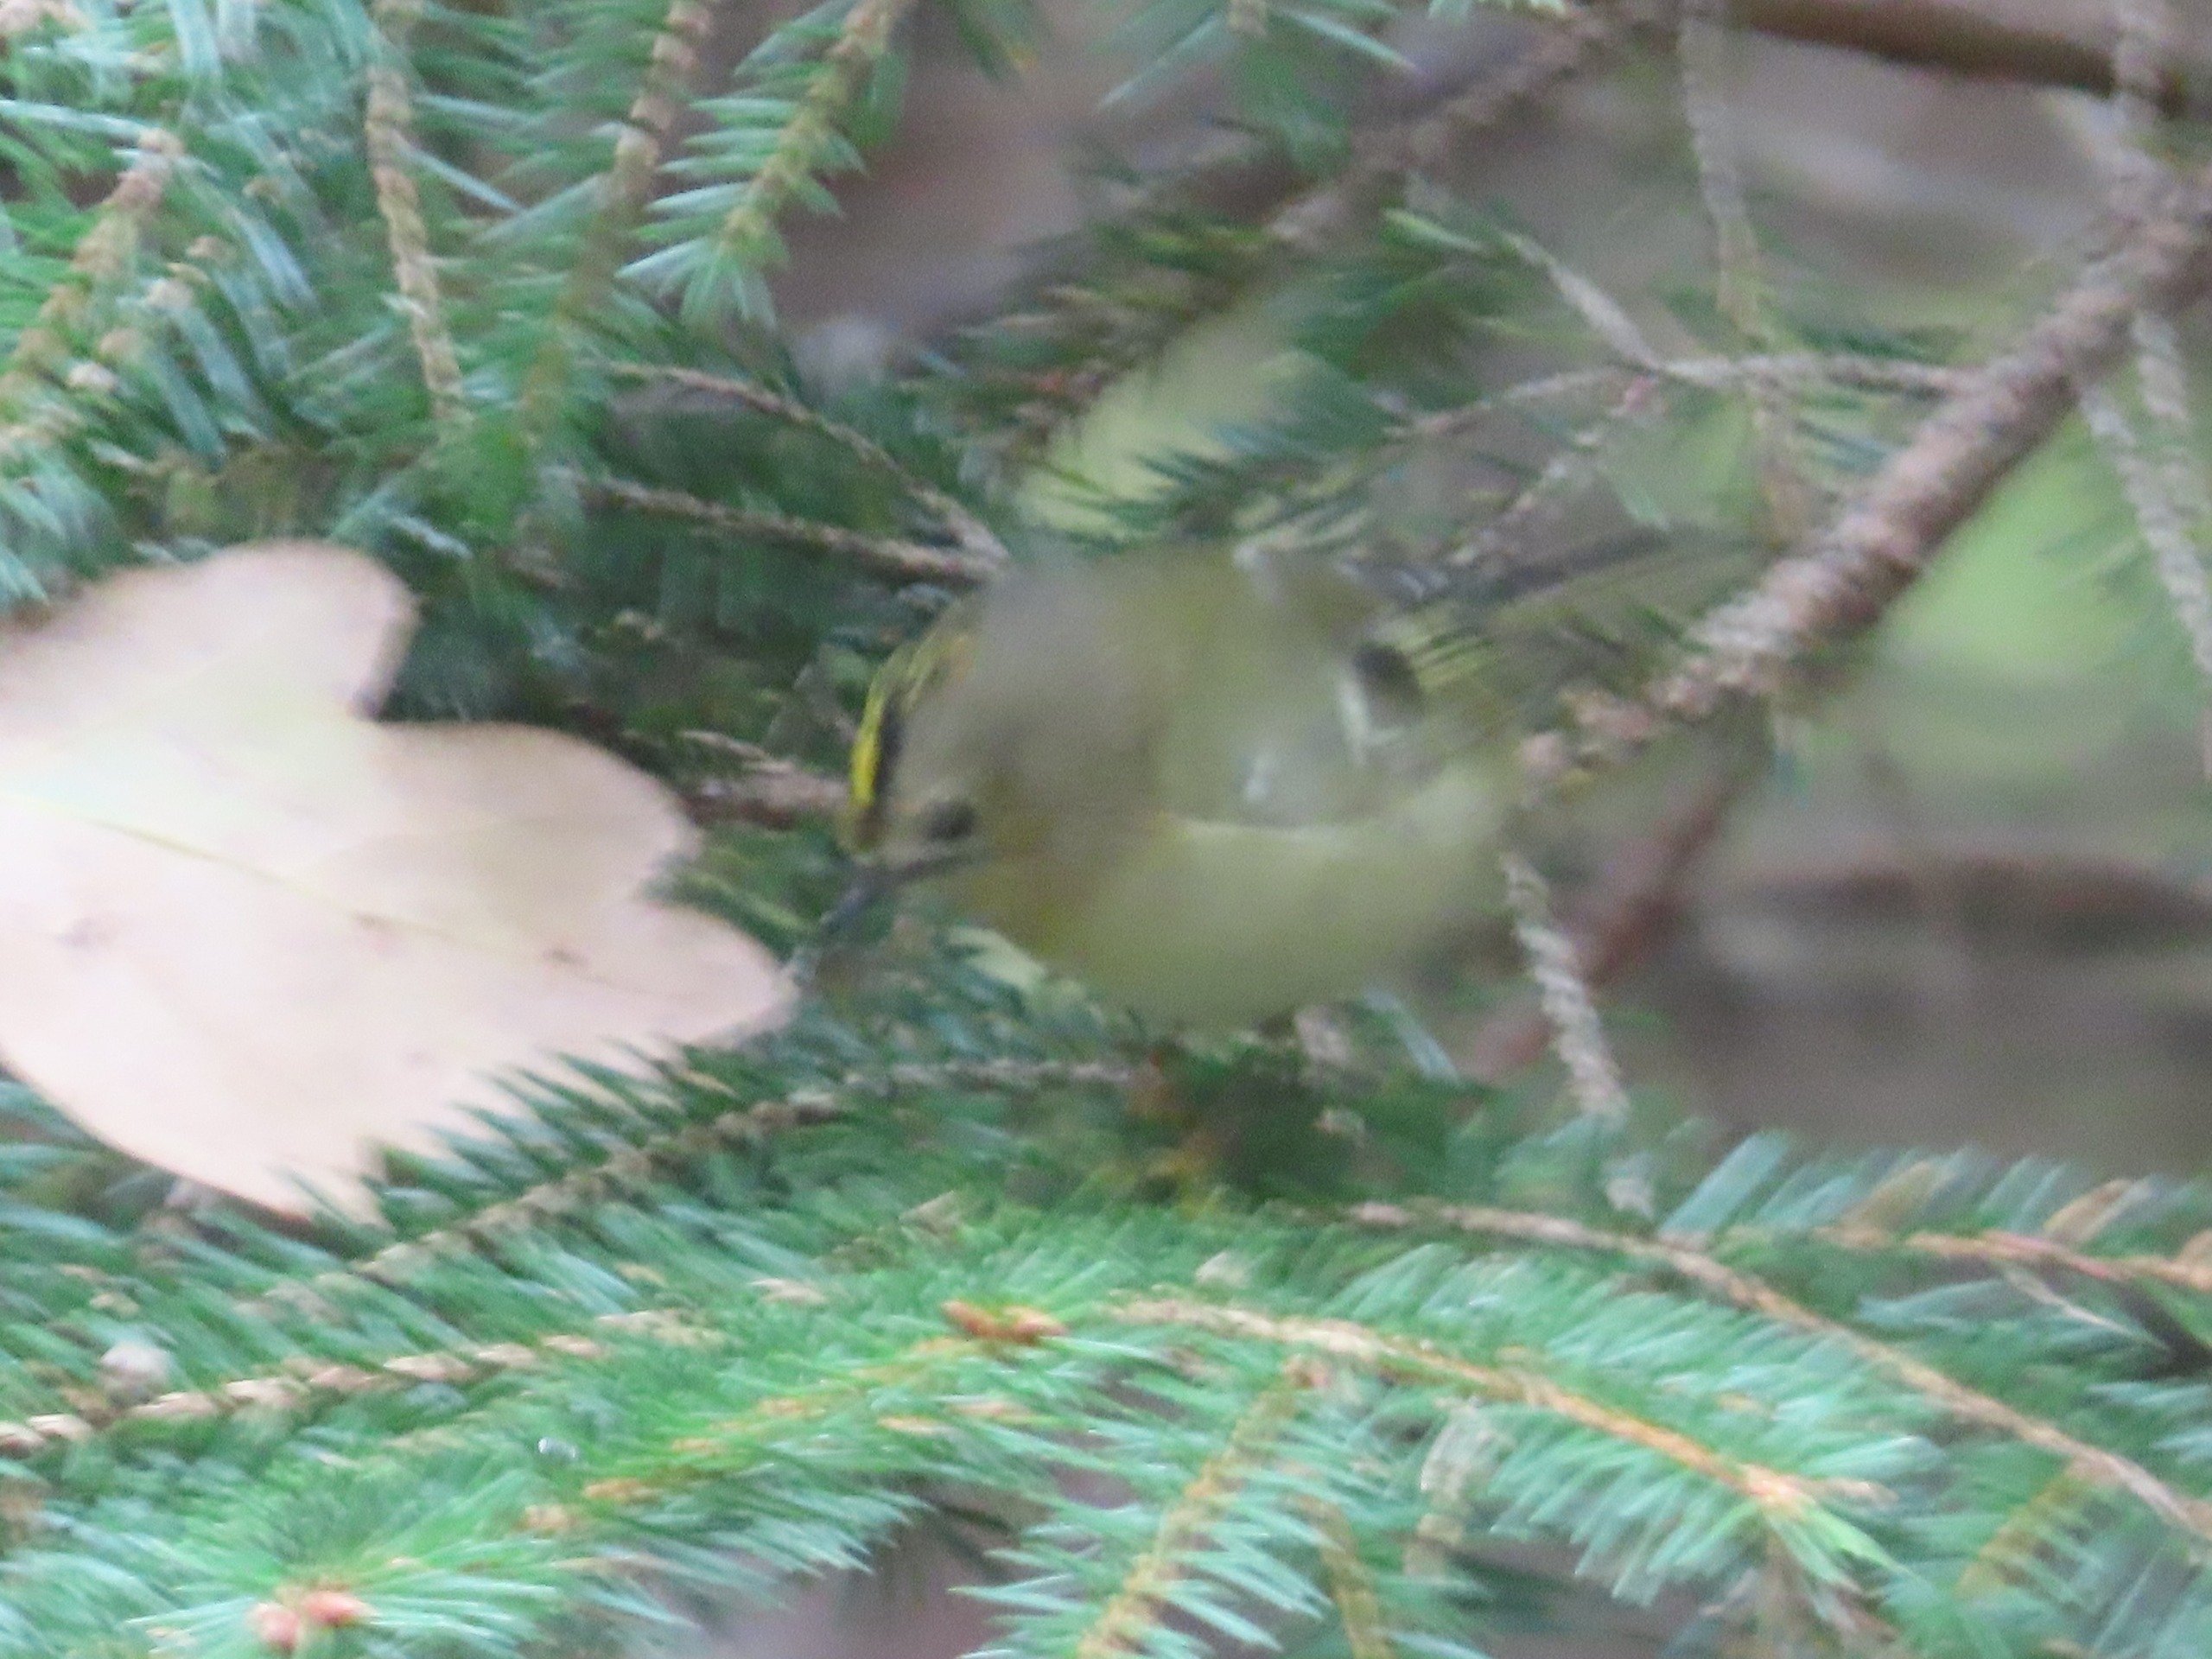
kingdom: Animalia
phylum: Chordata
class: Aves
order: Passeriformes
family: Regulidae
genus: Regulus
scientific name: Regulus regulus
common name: Fuglekonge
